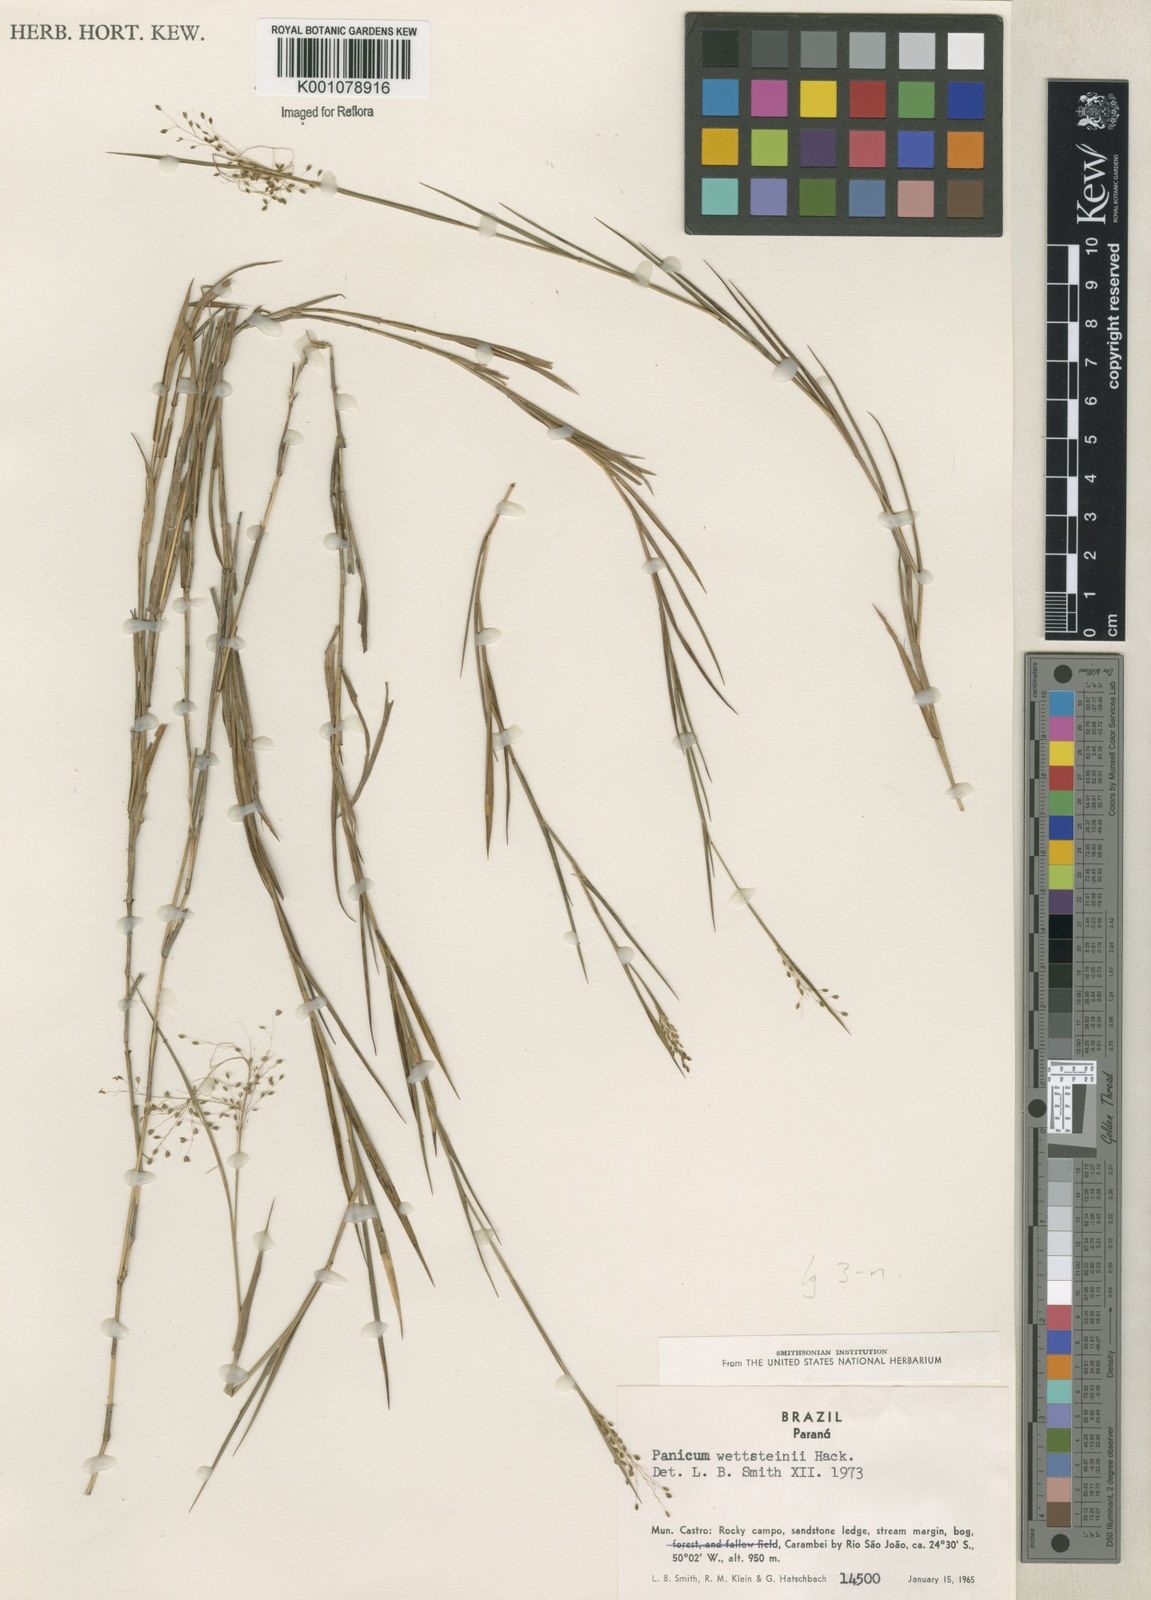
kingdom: Plantae
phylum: Tracheophyta
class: Liliopsida
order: Poales
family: Poaceae
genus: Trichanthecium
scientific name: Trichanthecium cyanescens
